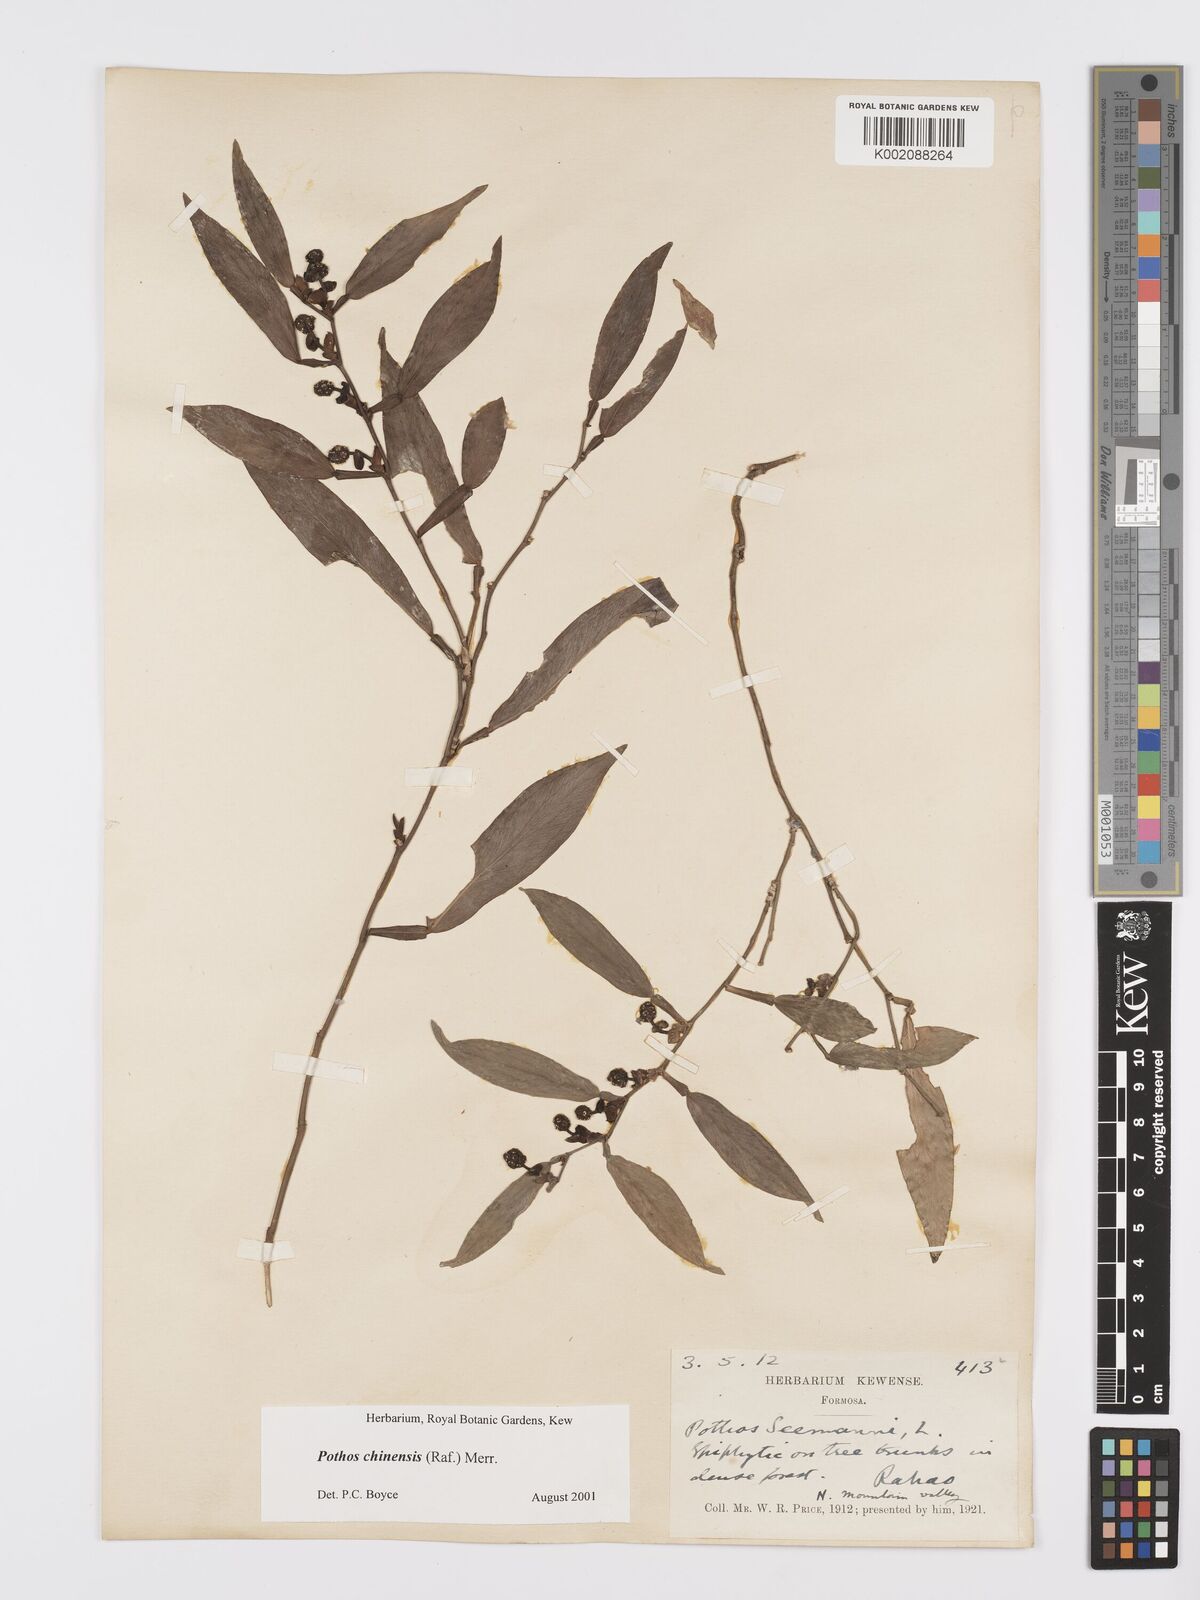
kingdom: Plantae
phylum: Tracheophyta
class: Liliopsida
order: Alismatales
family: Araceae
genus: Pothos
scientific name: Pothos chinensis
